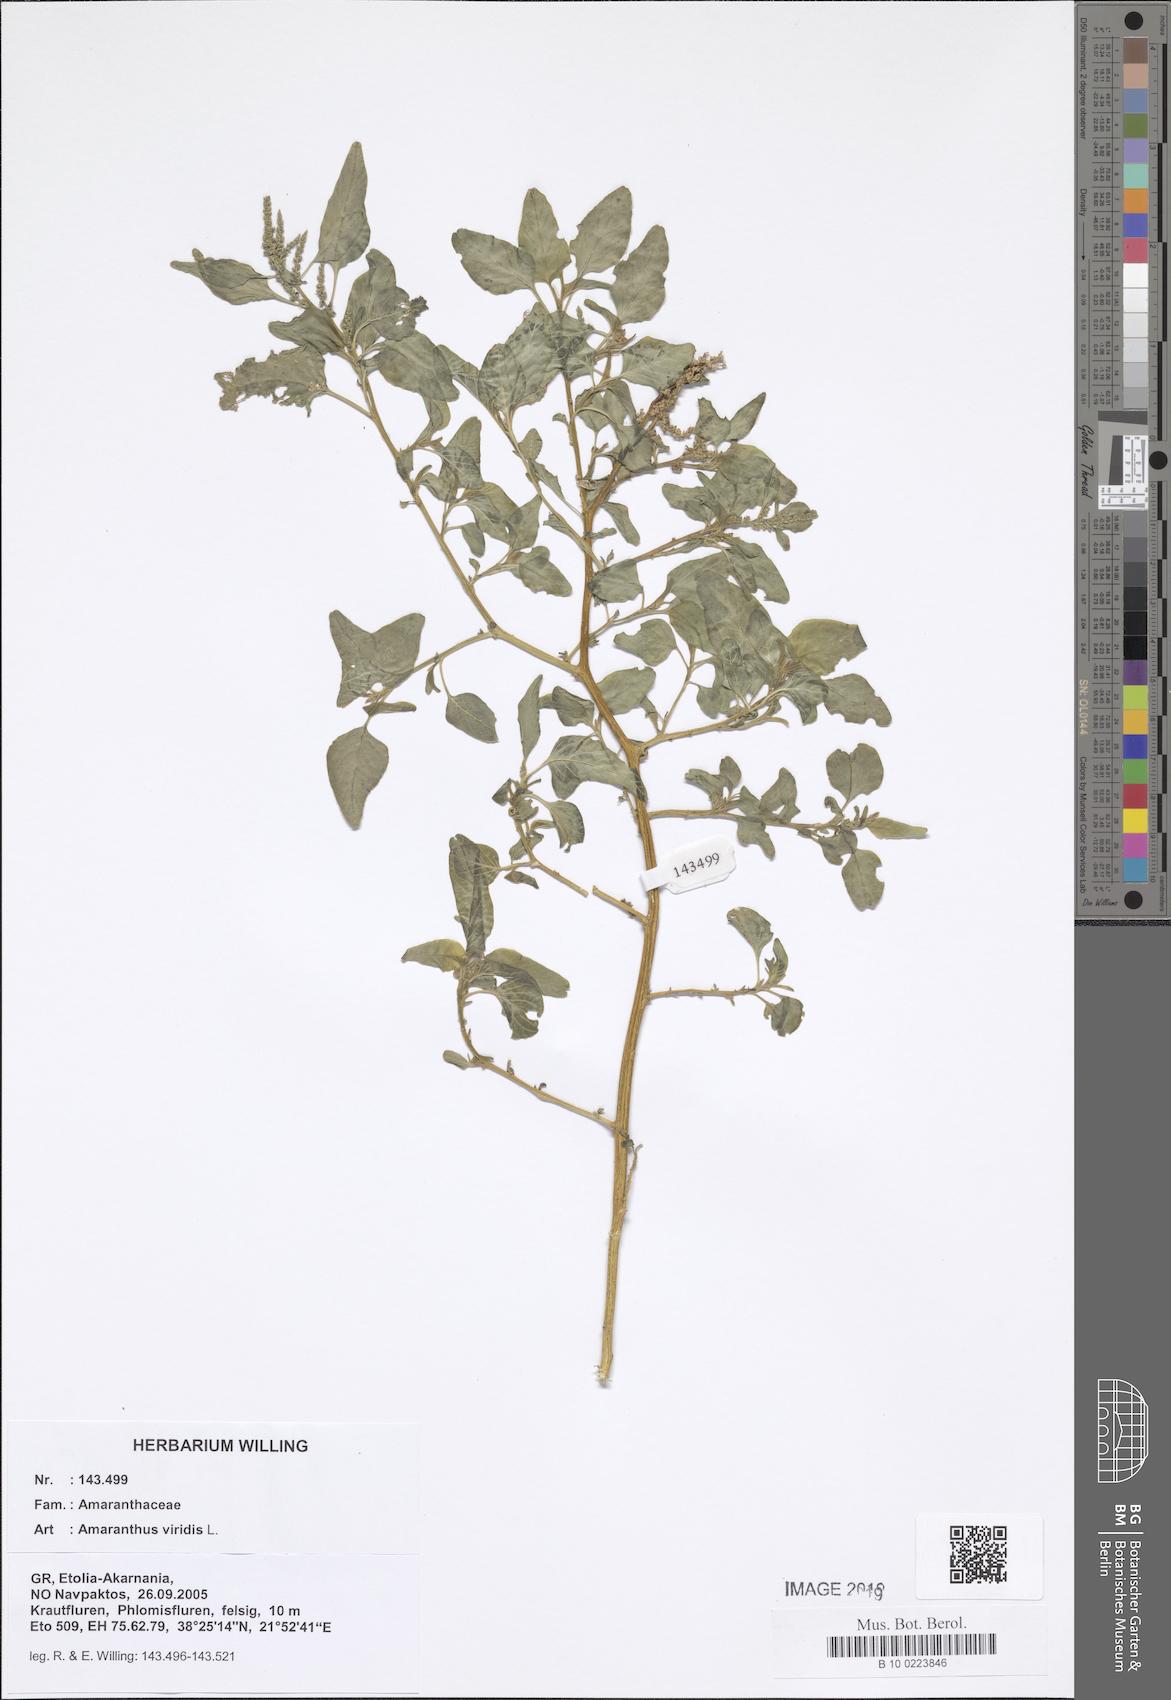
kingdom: Plantae
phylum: Tracheophyta
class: Magnoliopsida
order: Caryophyllales
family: Amaranthaceae
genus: Amaranthus
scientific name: Amaranthus viridis
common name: Slender amaranth
